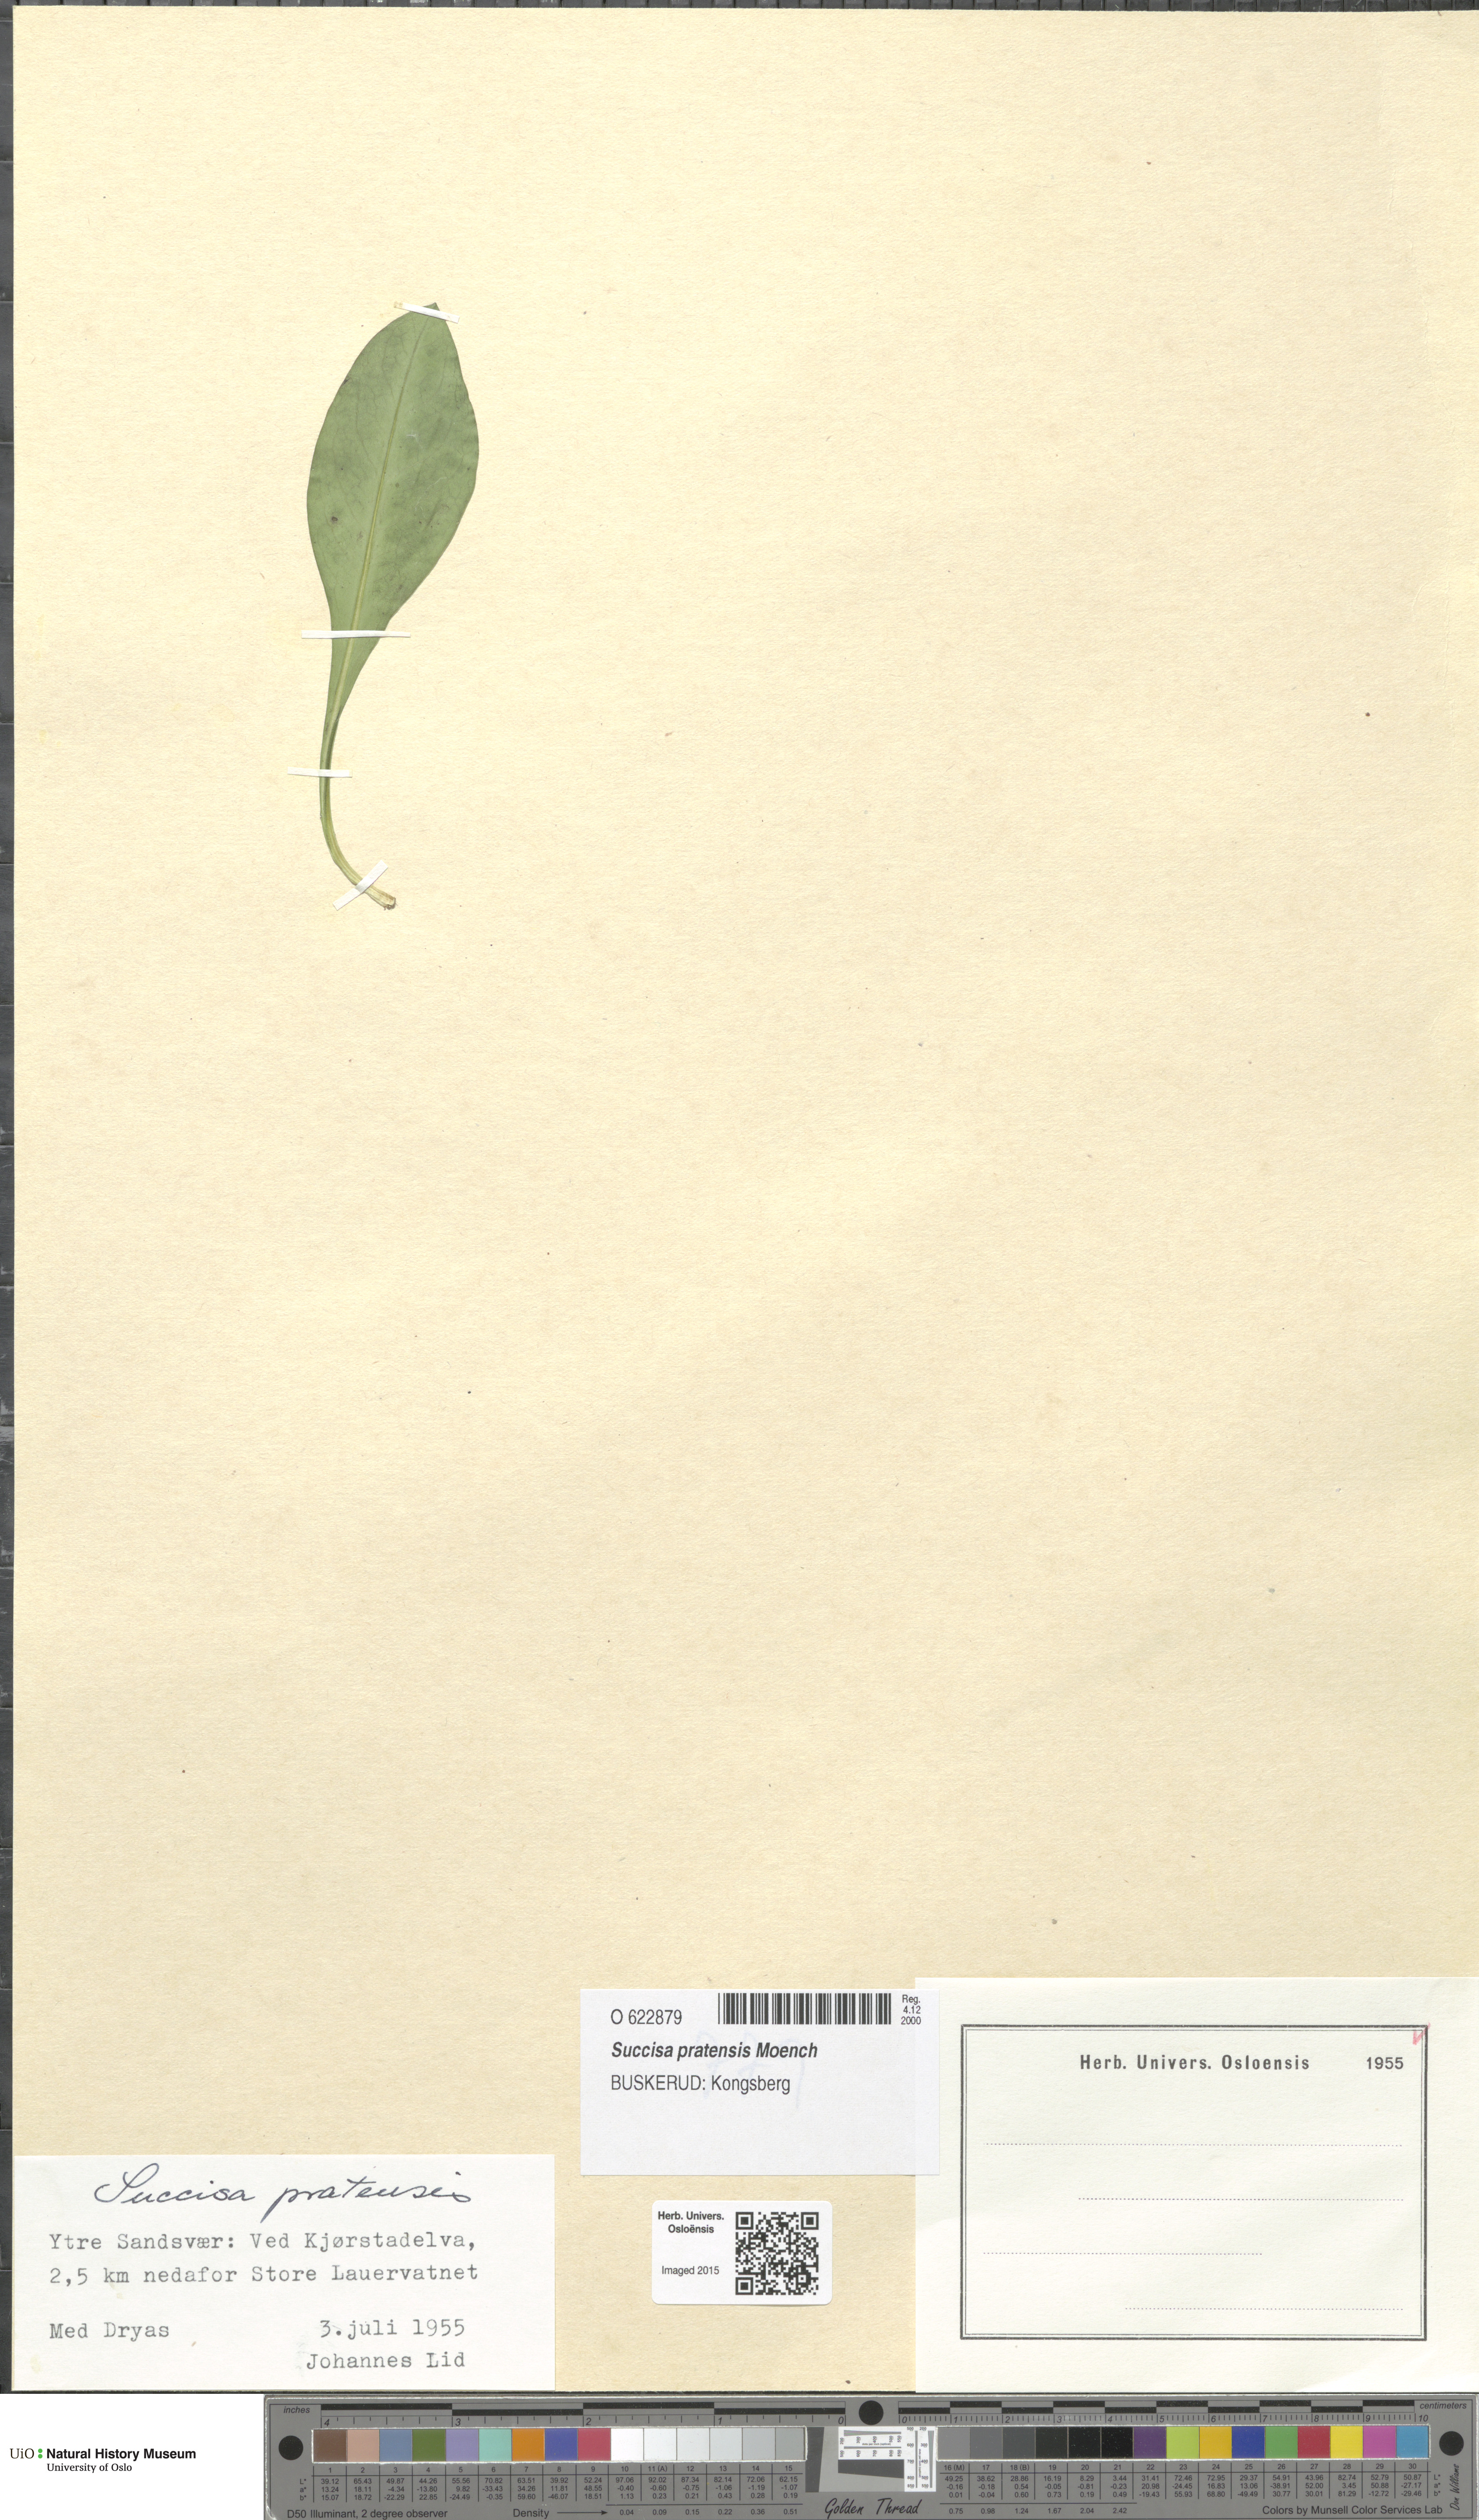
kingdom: Plantae
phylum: Tracheophyta
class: Magnoliopsida
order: Dipsacales
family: Caprifoliaceae
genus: Succisa
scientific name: Succisa pratensis
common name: Devil's-bit
